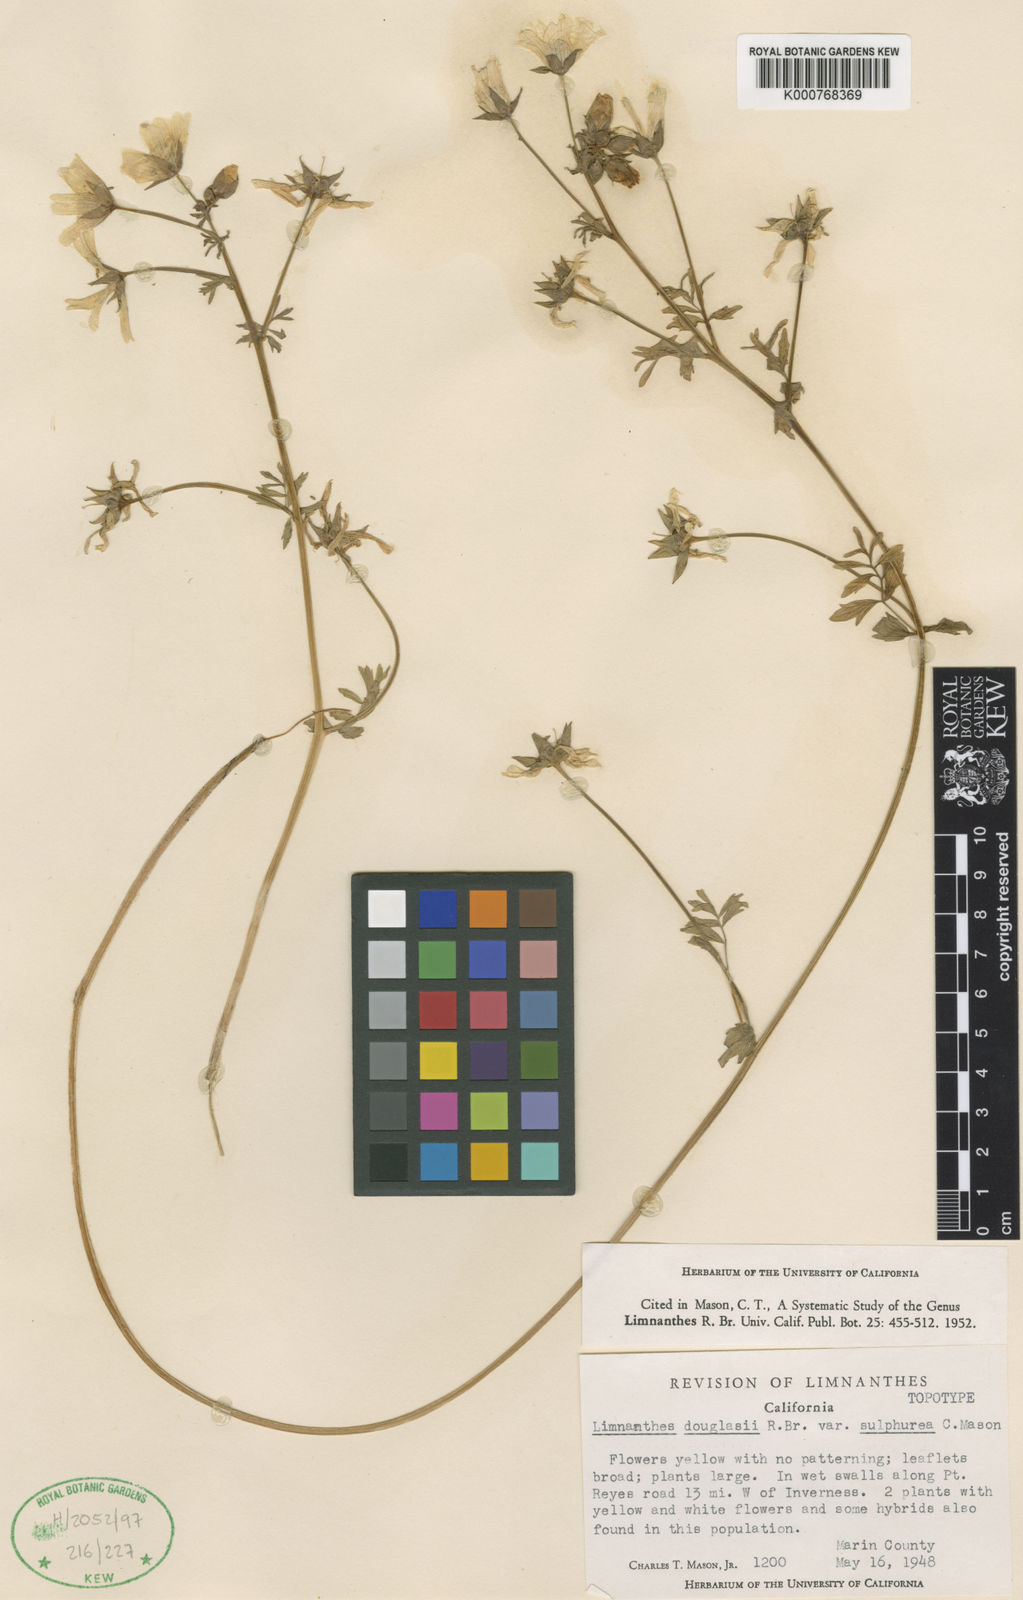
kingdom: Plantae
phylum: Tracheophyta
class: Magnoliopsida
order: Brassicales
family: Limnanthaceae
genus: Limnanthes
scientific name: Limnanthes douglasii
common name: Meadow-foam
